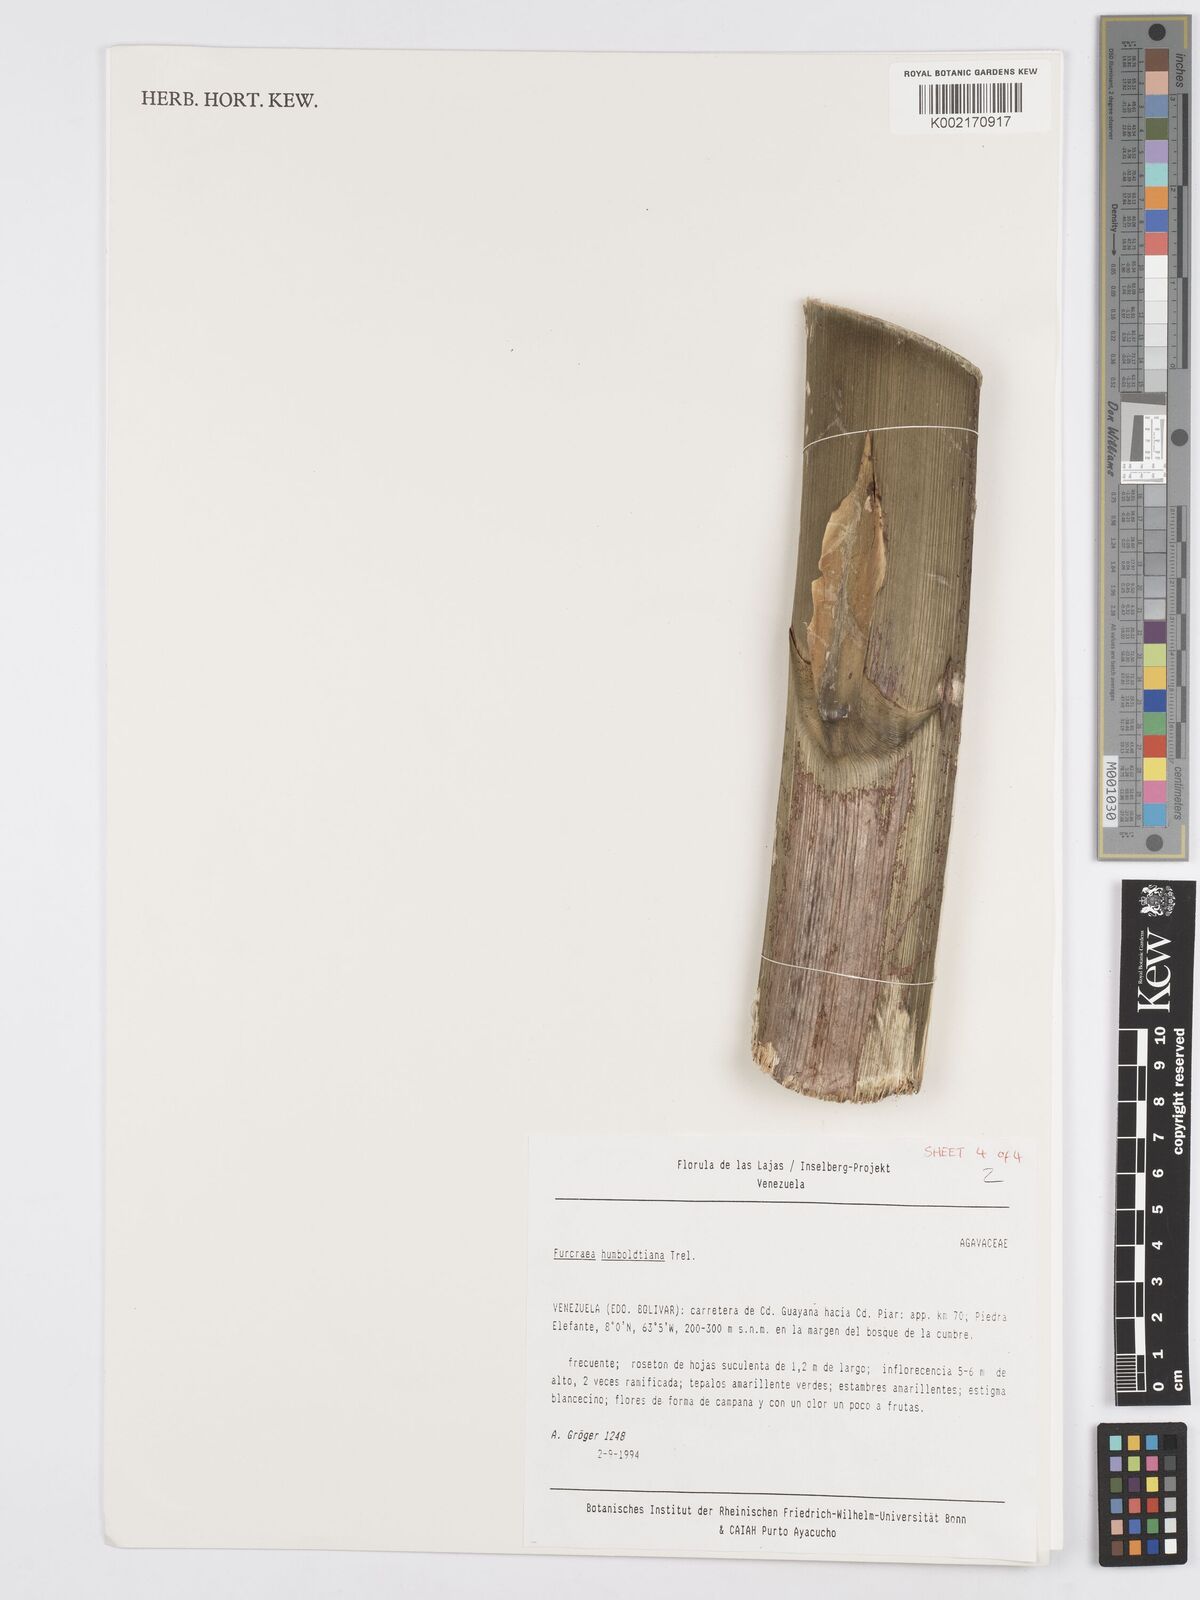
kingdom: Plantae
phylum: Tracheophyta
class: Liliopsida
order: Asparagales
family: Asparagaceae
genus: Furcraea
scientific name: Furcraea acaulis
